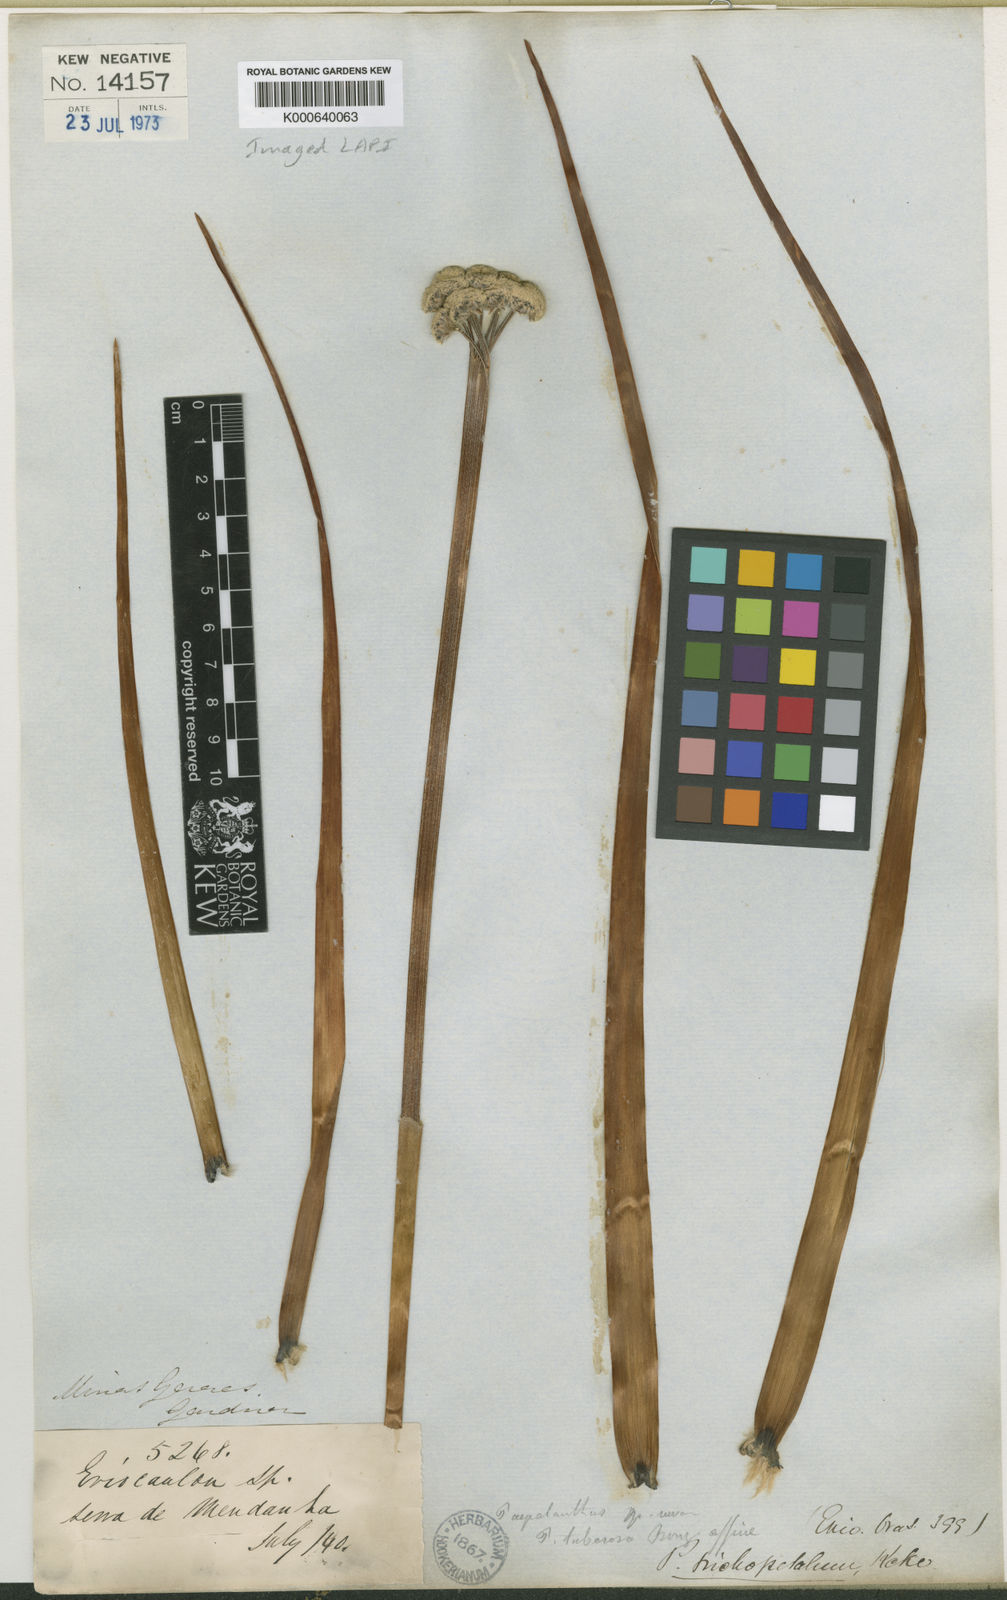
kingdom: Plantae
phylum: Tracheophyta
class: Liliopsida
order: Poales
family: Eriocaulaceae
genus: Paepalanthus
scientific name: Paepalanthus
